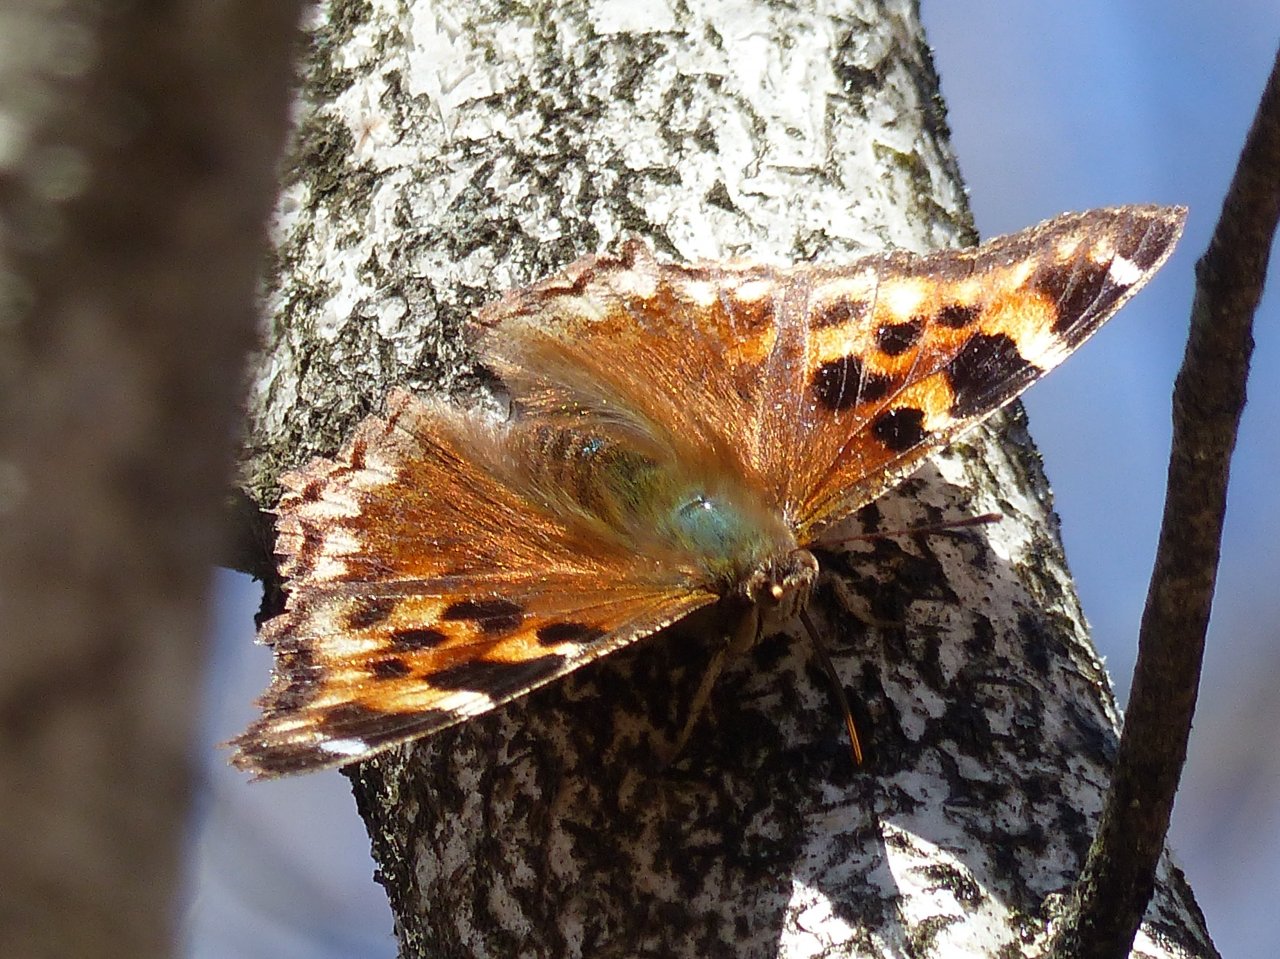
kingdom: Animalia
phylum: Arthropoda
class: Insecta
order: Lepidoptera
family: Nymphalidae
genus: Polygonia
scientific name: Polygonia vaualbum
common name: Compton Tortoiseshell
